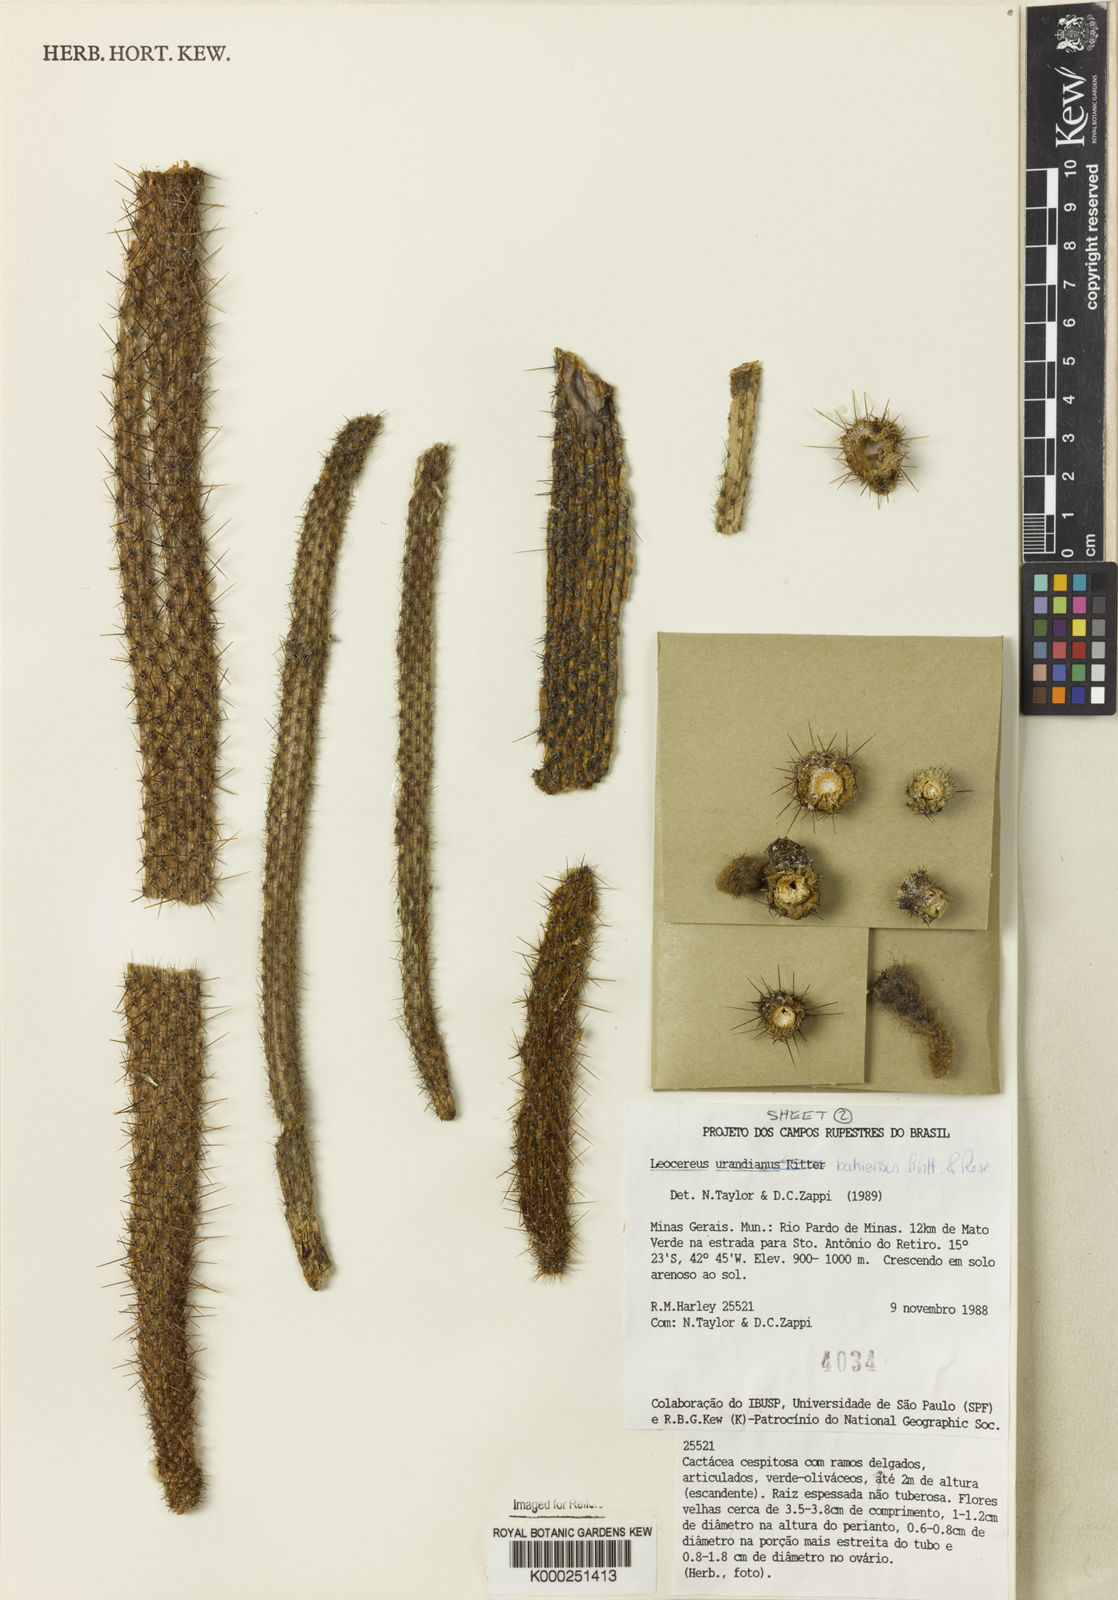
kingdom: Plantae
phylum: Tracheophyta
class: Magnoliopsida
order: Caryophyllales
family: Cactaceae
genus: Leocereus
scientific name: Leocereus bahiensis
